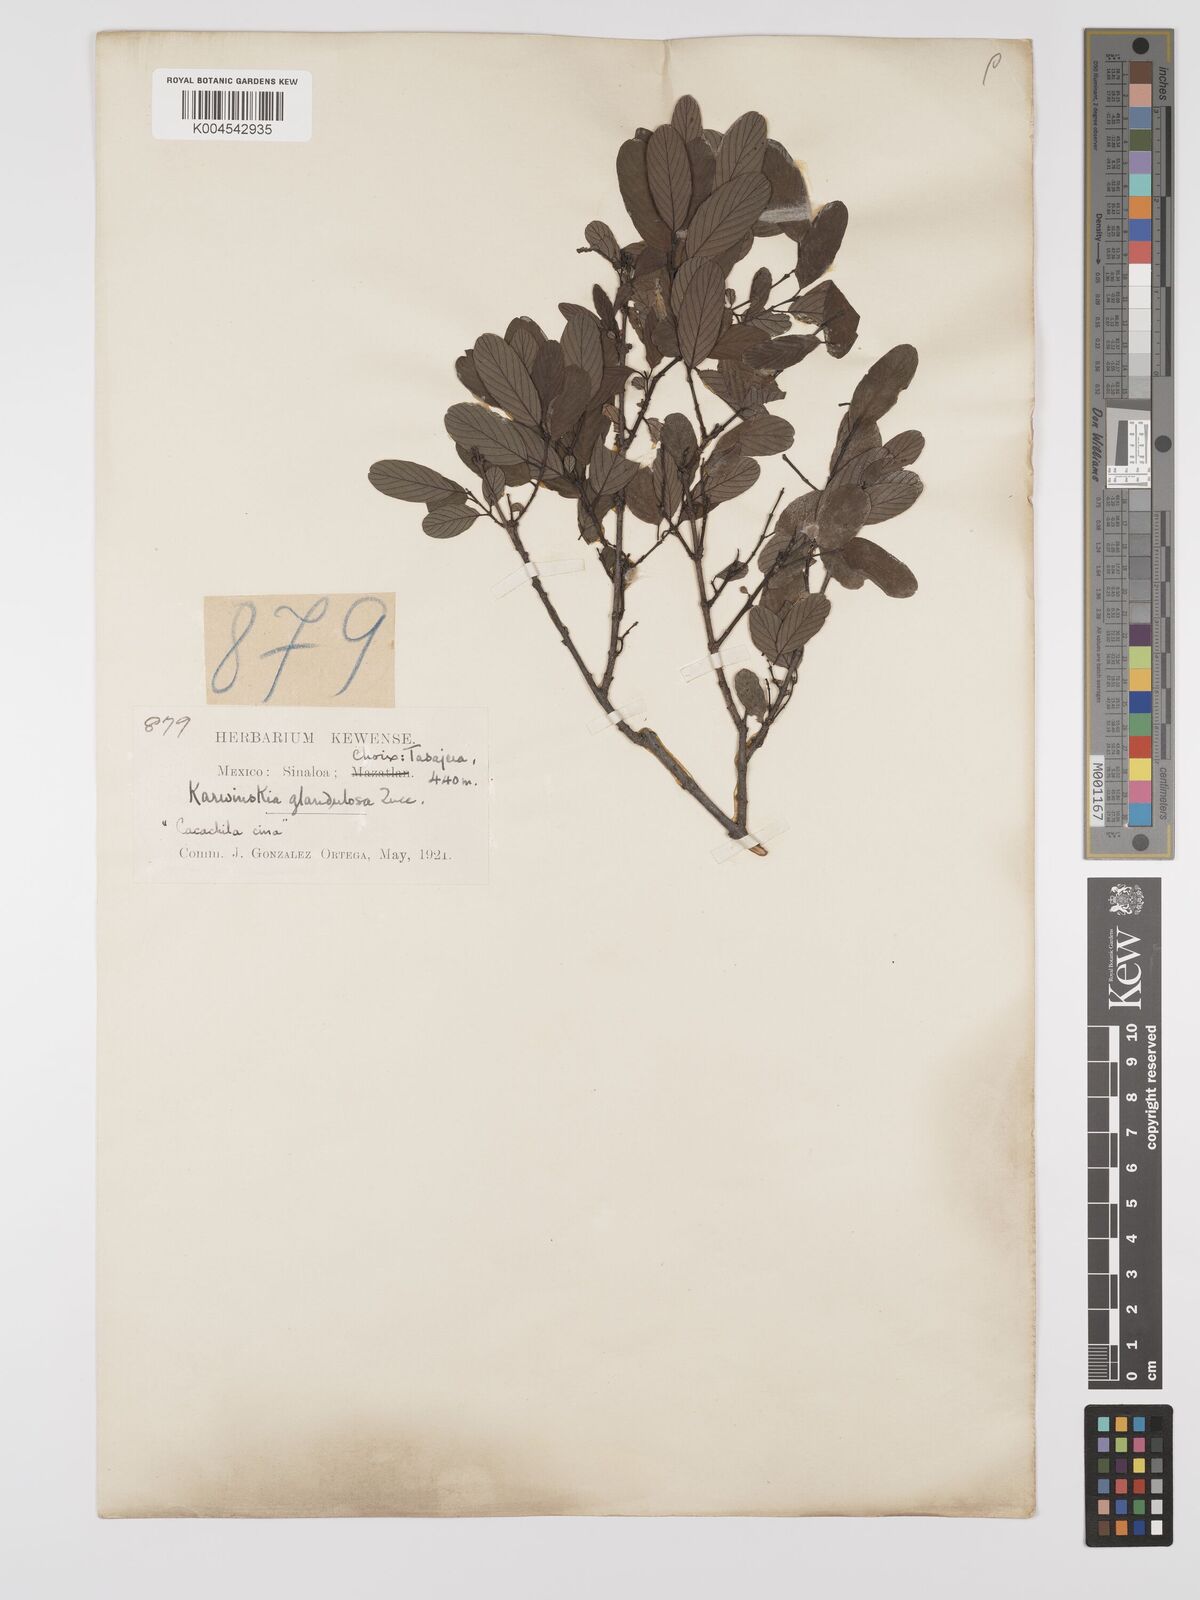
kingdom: Plantae
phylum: Tracheophyta
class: Magnoliopsida
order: Rosales
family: Rhamnaceae
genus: Karwinskia
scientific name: Karwinskia parvifolia
